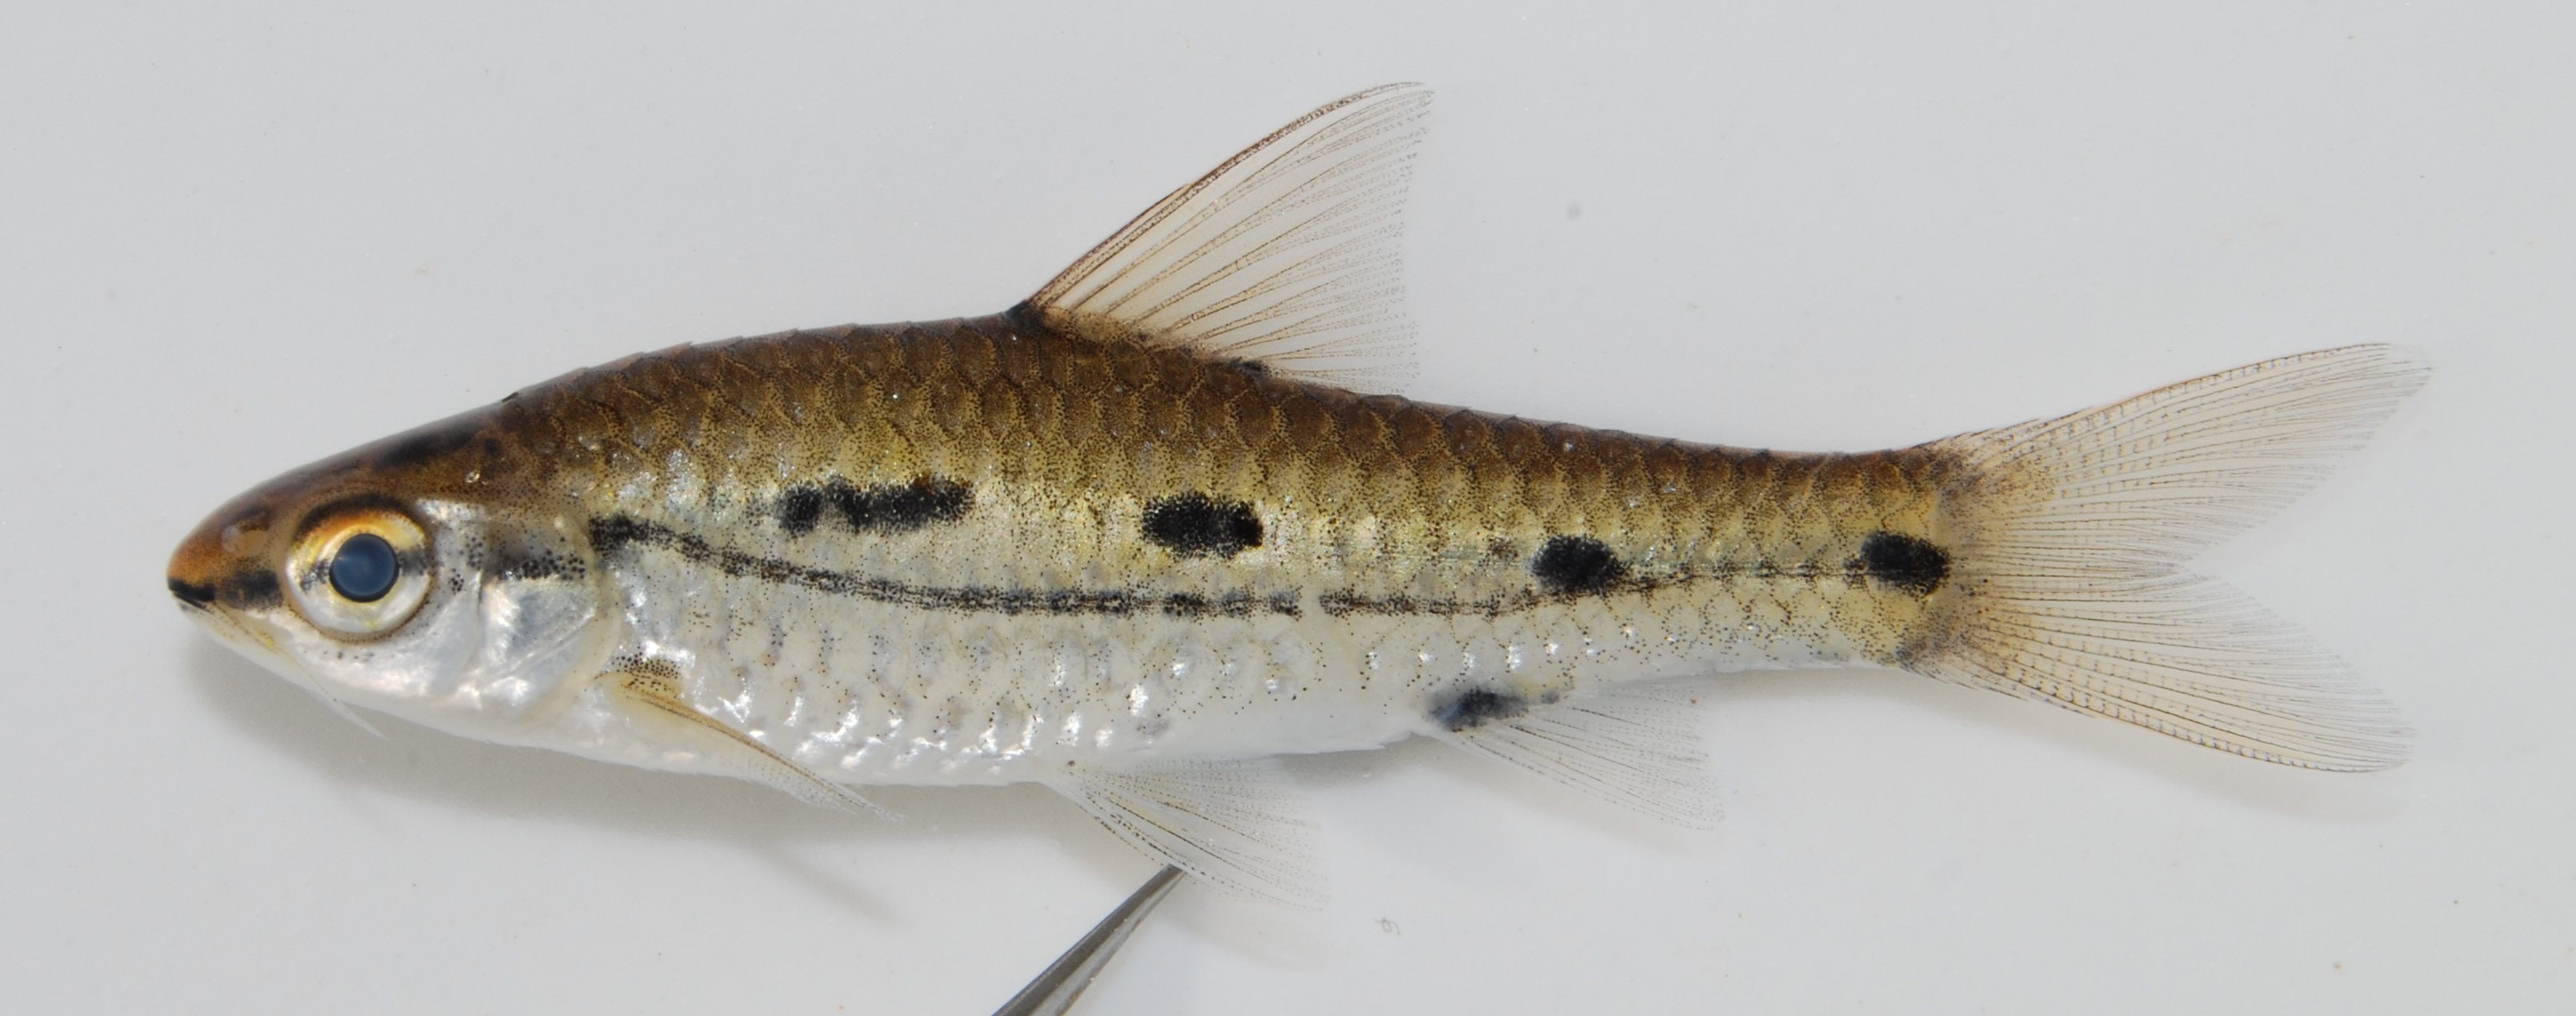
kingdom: Animalia
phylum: Chordata
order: Cypriniformes
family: Cyprinidae
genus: Enteromius
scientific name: Enteromius bifrenatus
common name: Hyphen barb
